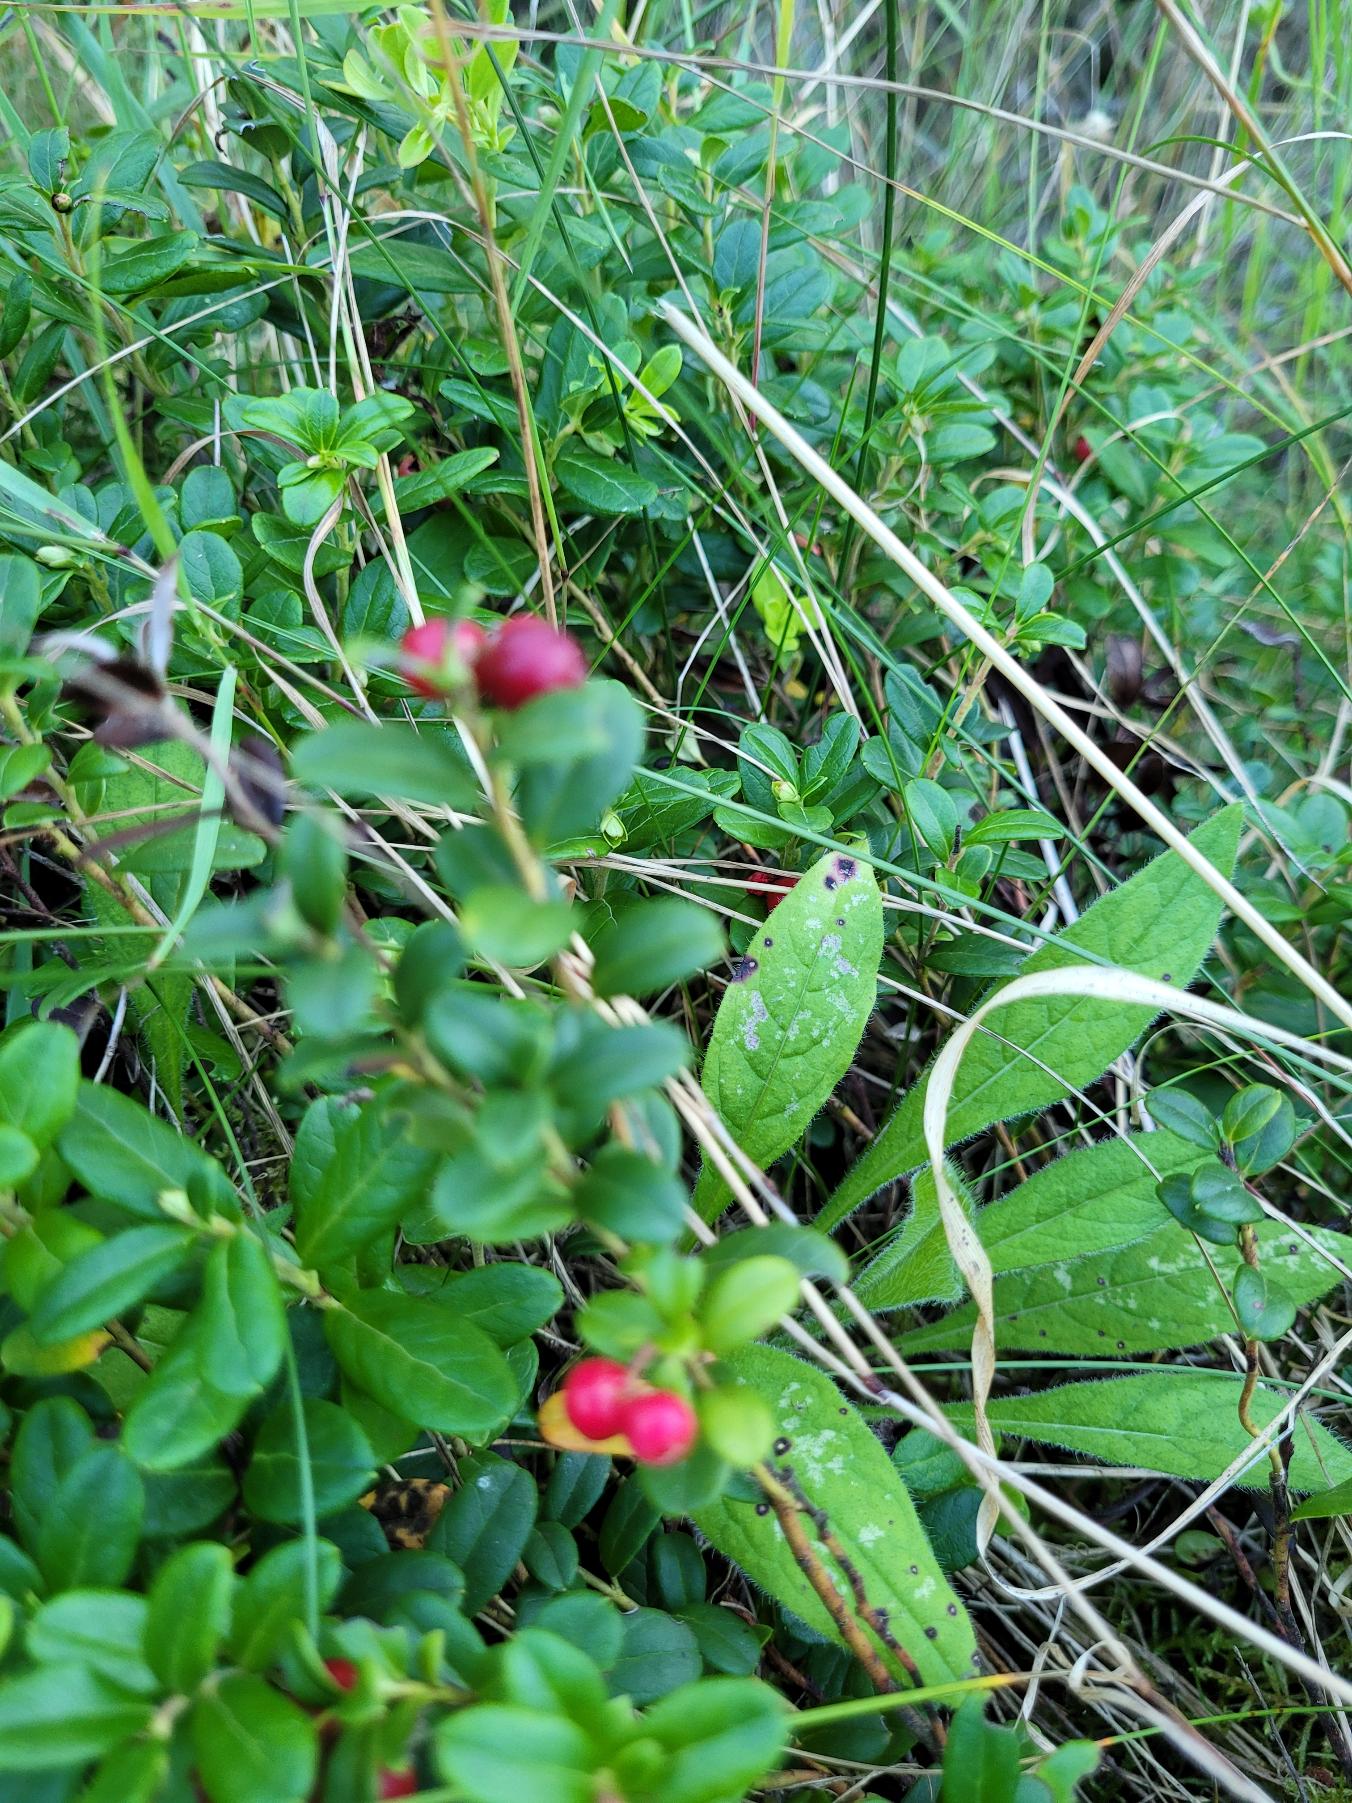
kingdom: Plantae
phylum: Tracheophyta
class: Magnoliopsida
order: Ericales
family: Ericaceae
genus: Vaccinium
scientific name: Vaccinium vitis-idaea
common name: Tyttebær
